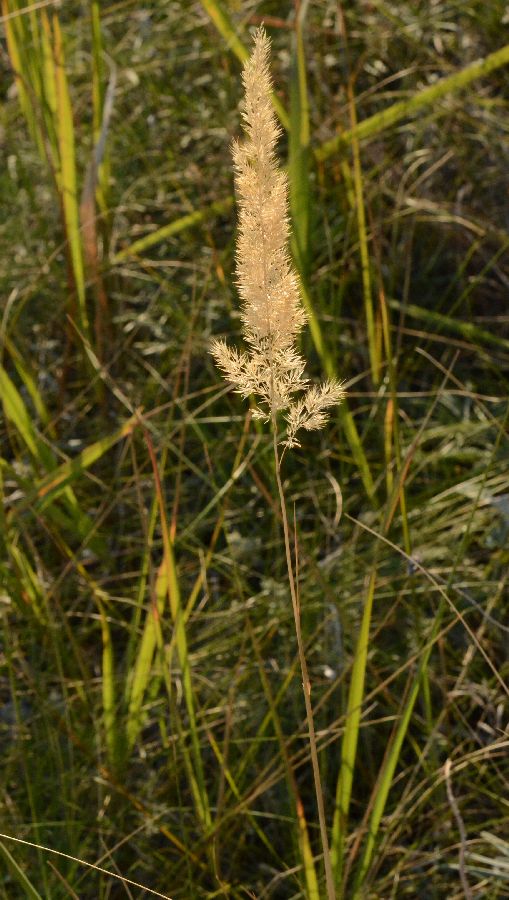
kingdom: Plantae
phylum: Tracheophyta
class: Liliopsida
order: Poales
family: Poaceae
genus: Calamagrostis
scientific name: Calamagrostis epigejos
